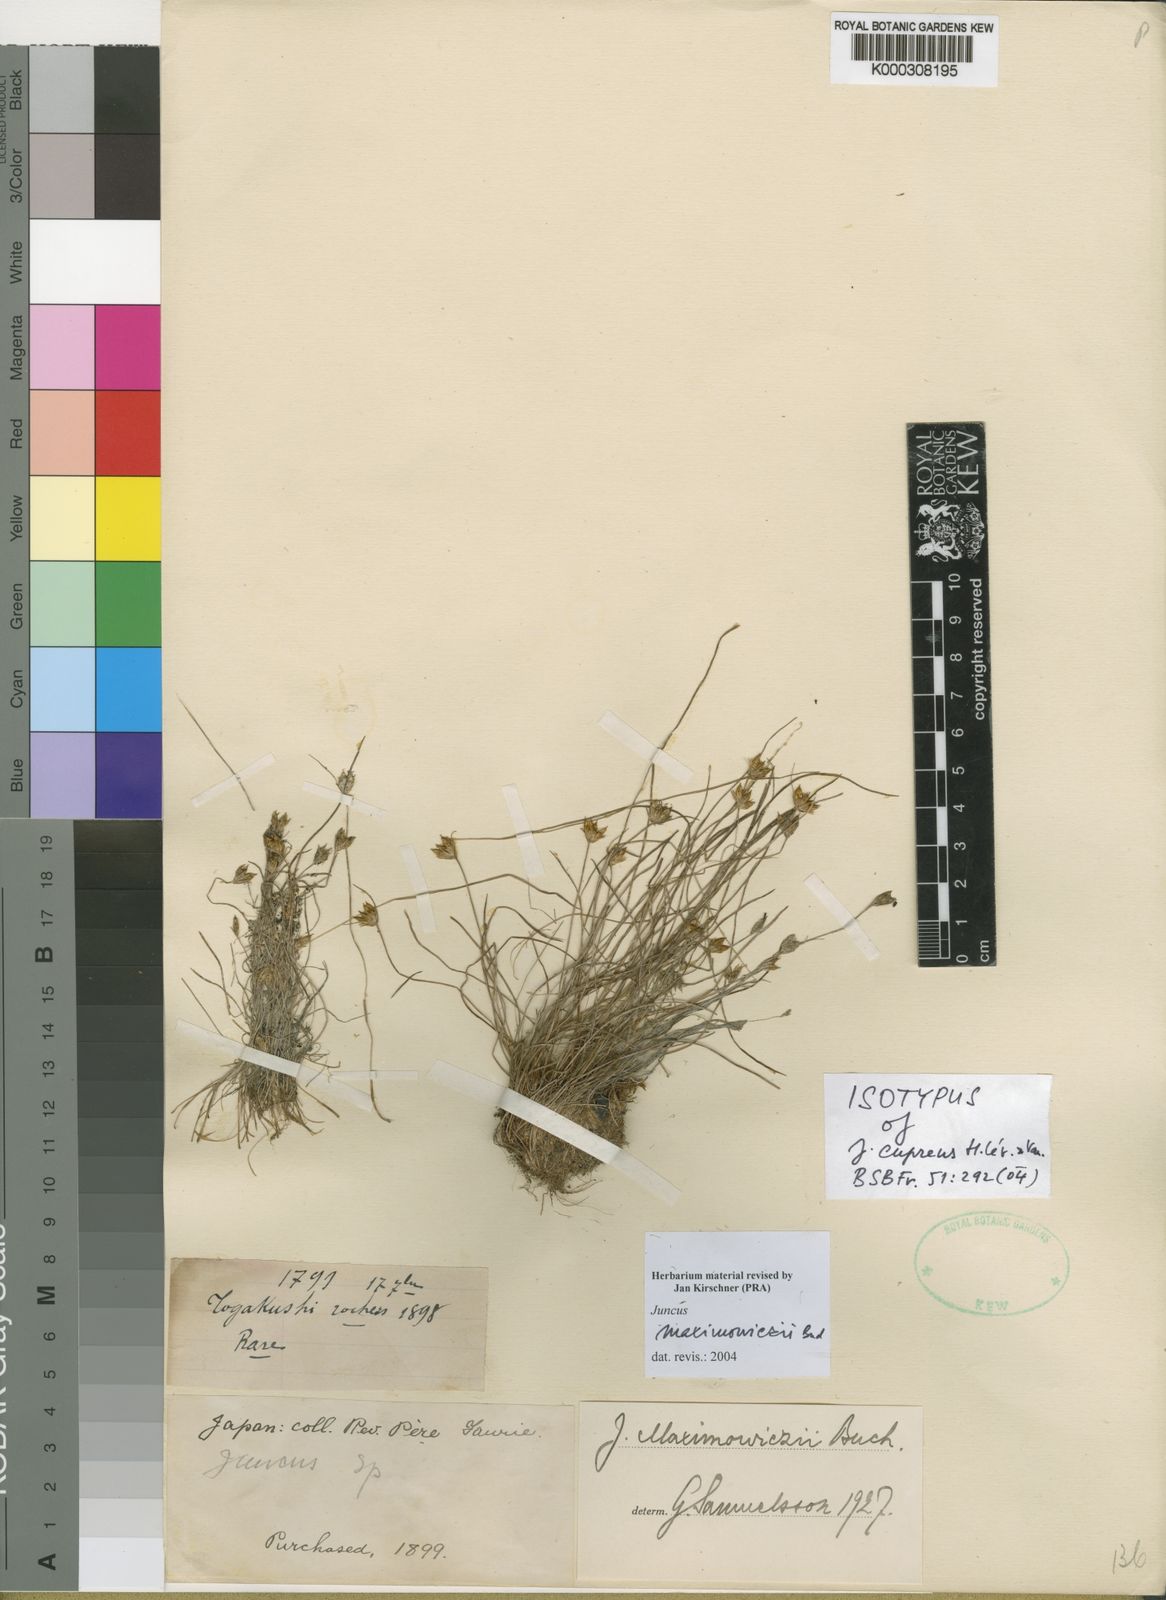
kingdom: Plantae
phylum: Tracheophyta
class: Liliopsida
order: Poales
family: Juncaceae
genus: Juncus
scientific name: Juncus maximowiczii
